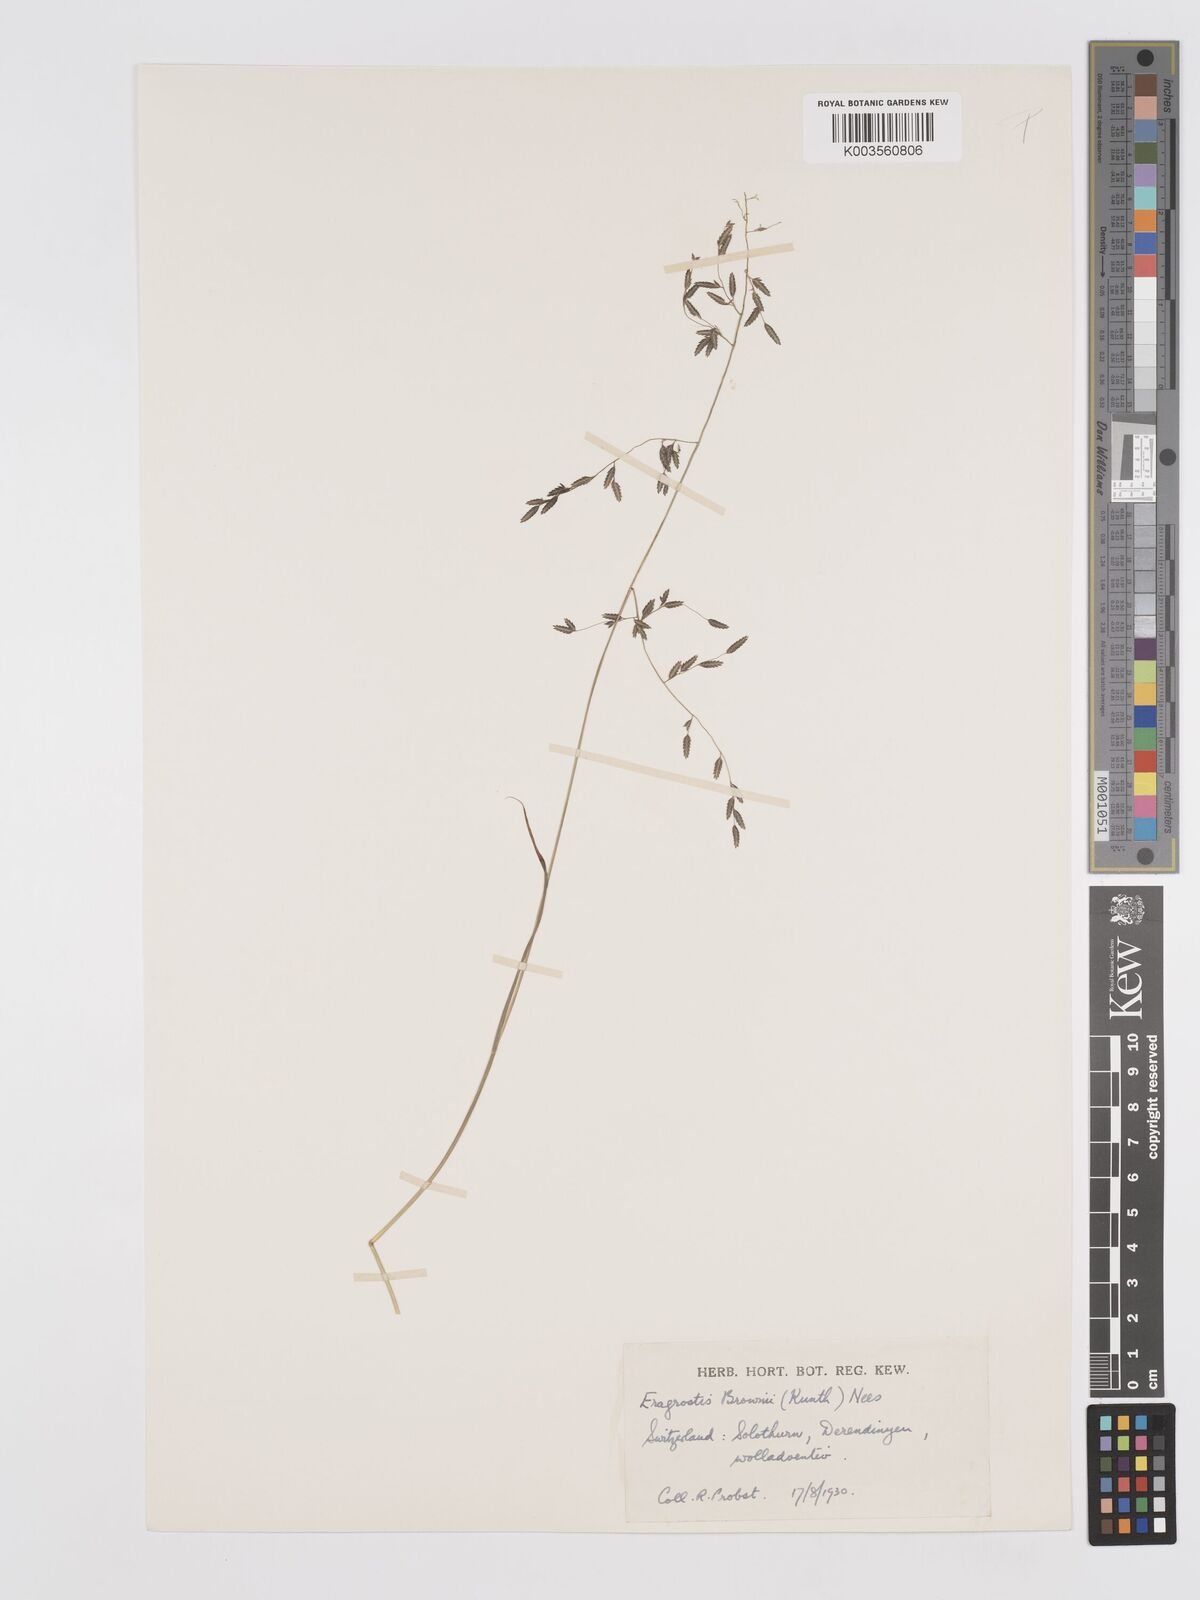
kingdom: Plantae
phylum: Tracheophyta
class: Liliopsida
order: Poales
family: Poaceae
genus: Eragrostis
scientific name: Eragrostis brownii
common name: Lovegrass
